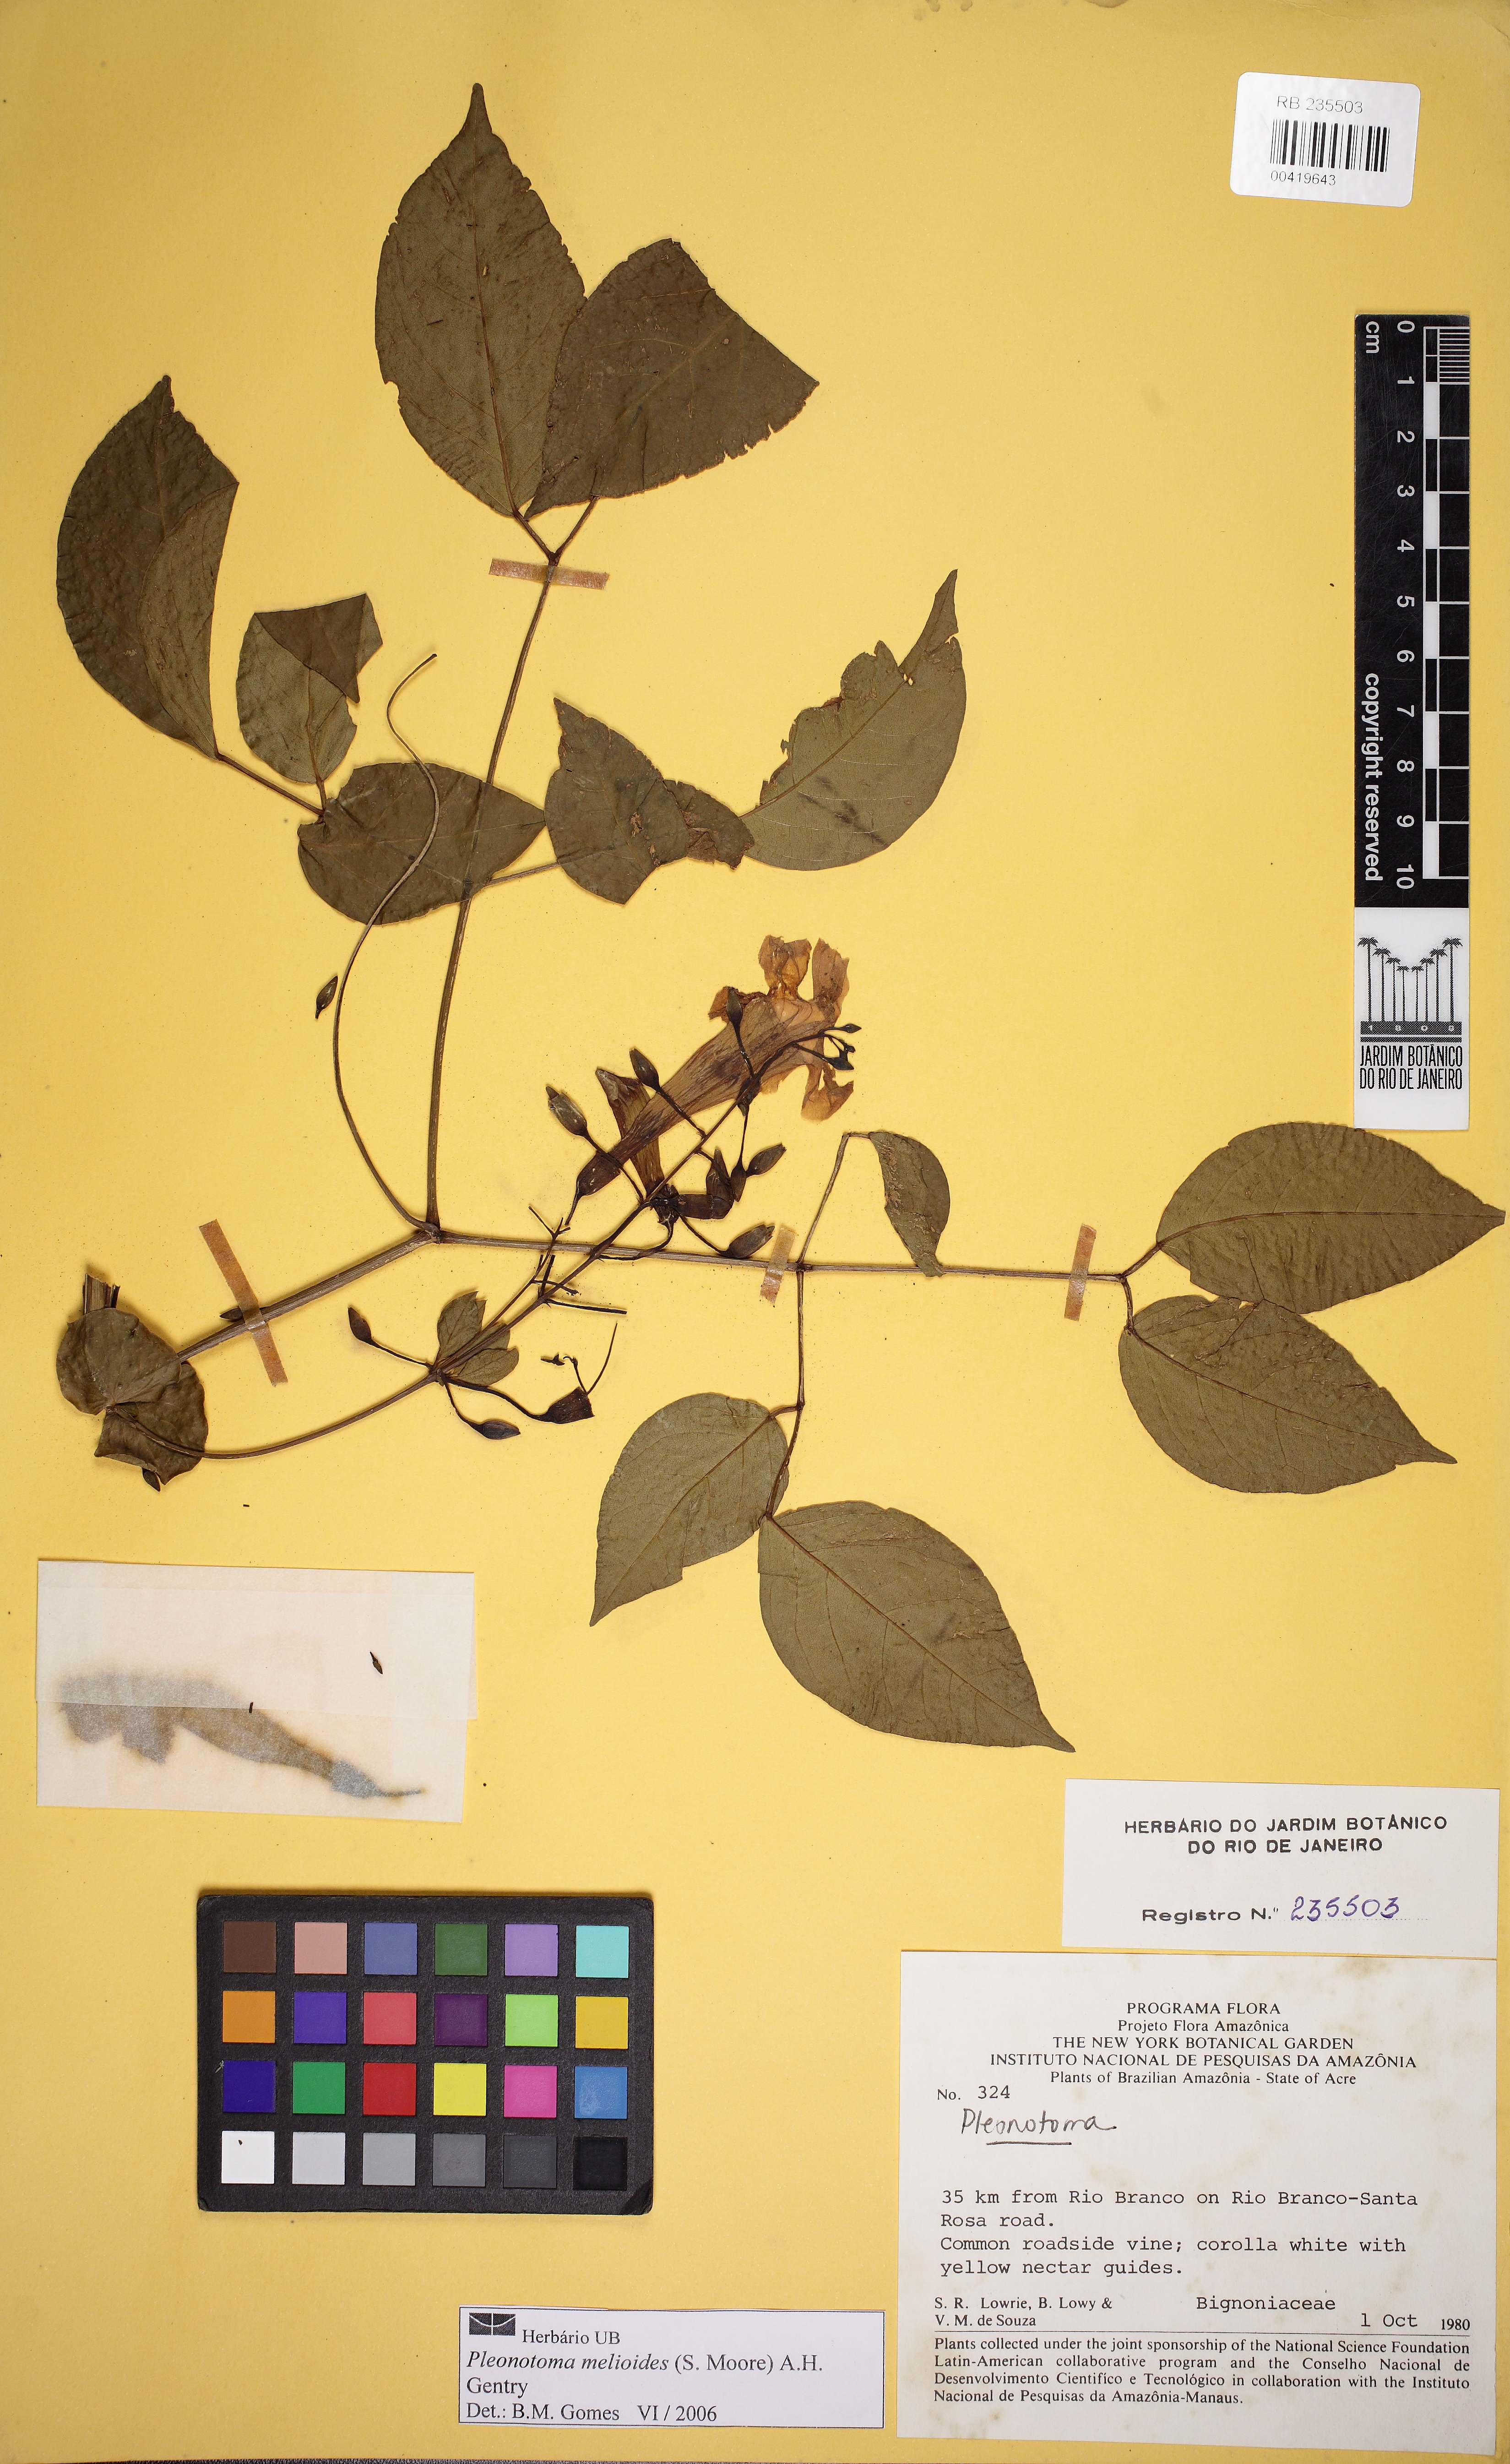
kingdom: Plantae
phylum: Tracheophyta
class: Magnoliopsida
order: Lamiales
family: Bignoniaceae
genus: Pleonotoma
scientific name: Pleonotoma melioides
